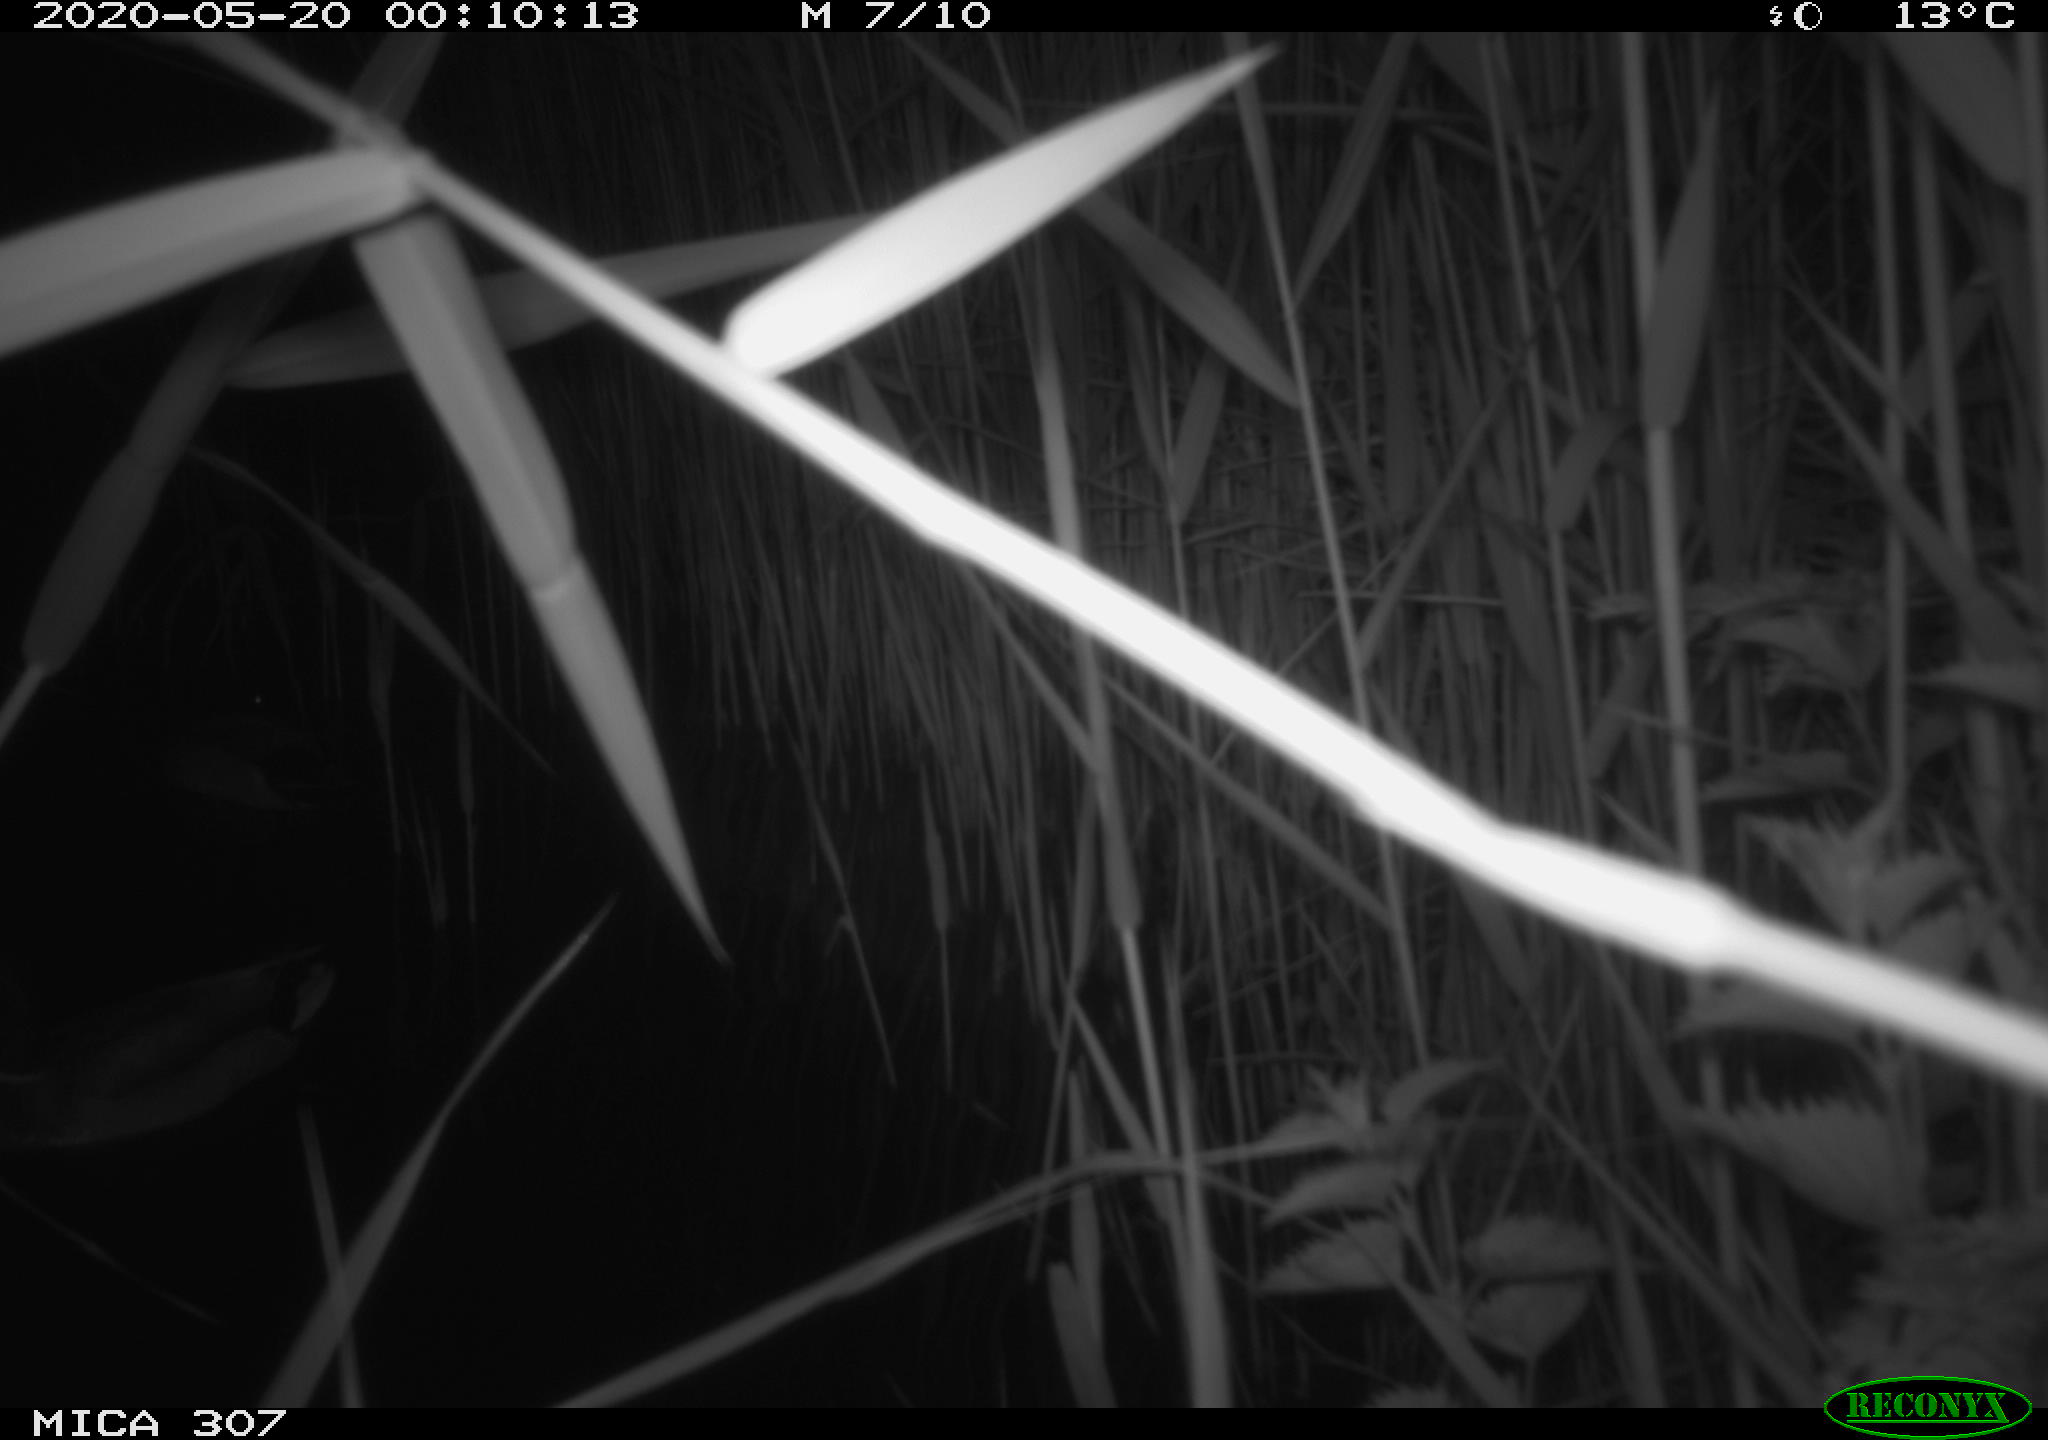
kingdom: Animalia
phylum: Chordata
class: Aves
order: Anseriformes
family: Anatidae
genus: Anas
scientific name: Anas platyrhynchos
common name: Mallard
